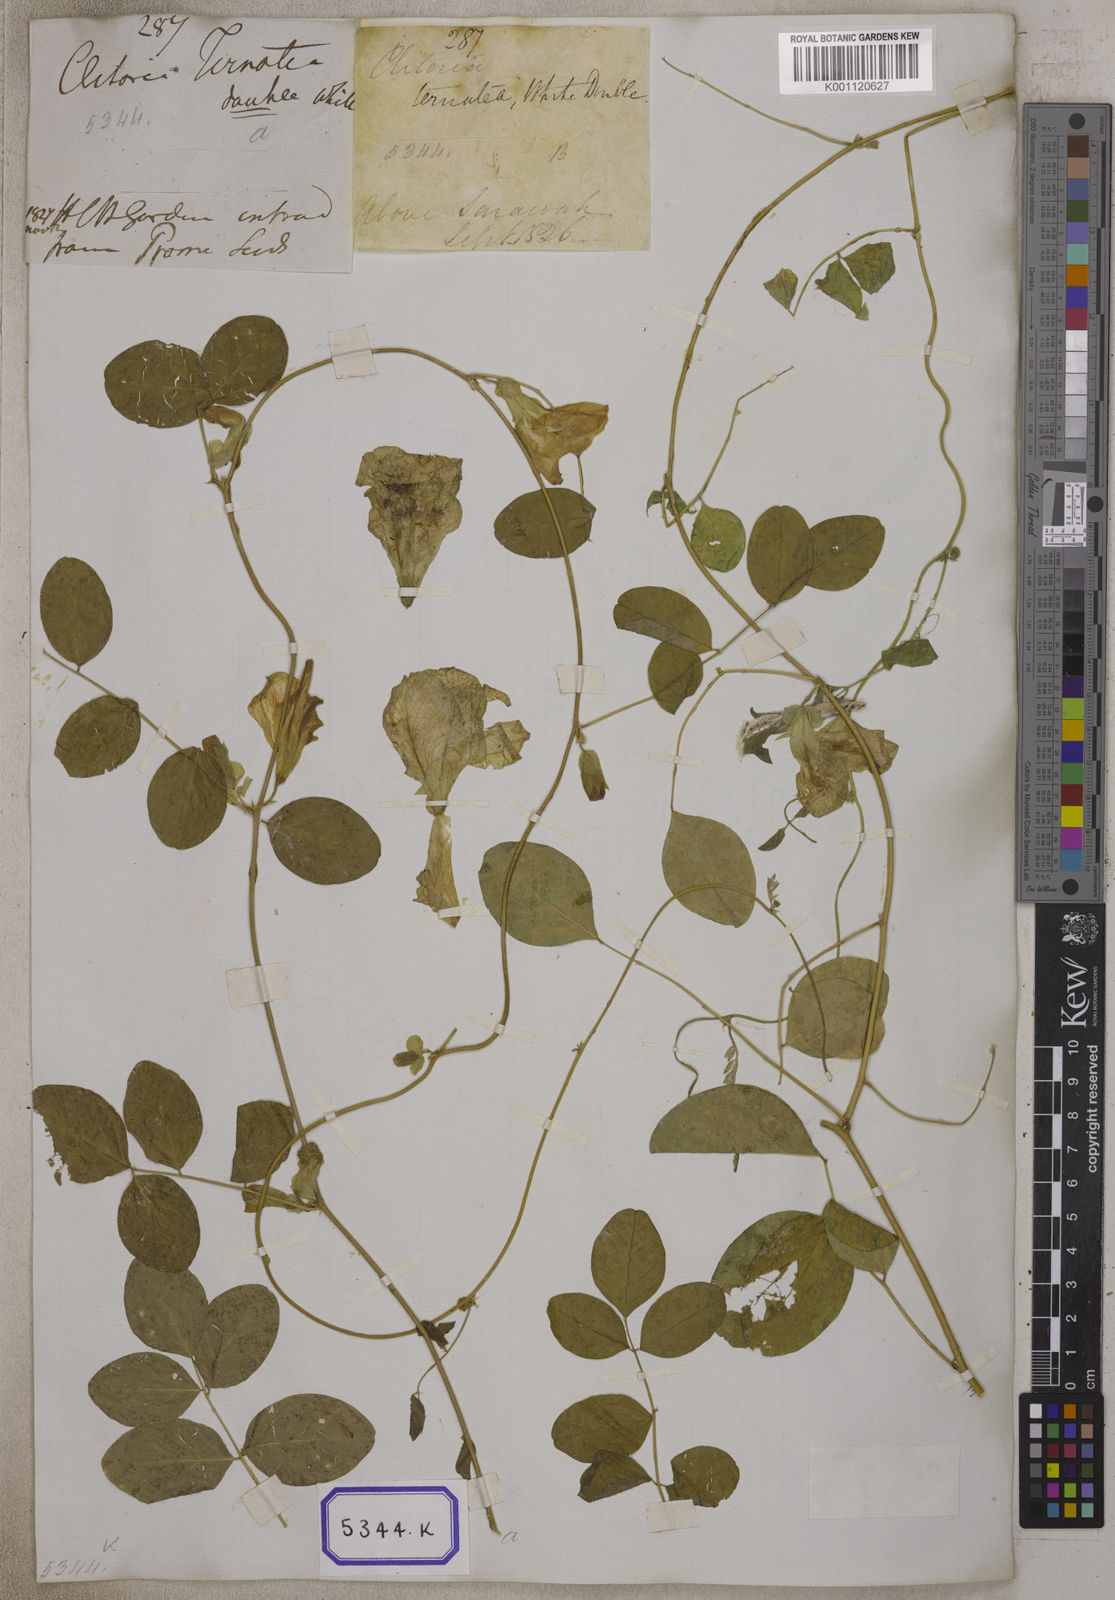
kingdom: Plantae
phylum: Tracheophyta
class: Magnoliopsida
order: Fabales
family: Fabaceae
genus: Clitoria
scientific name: Clitoria ternatea
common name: Asian pigeonwings
